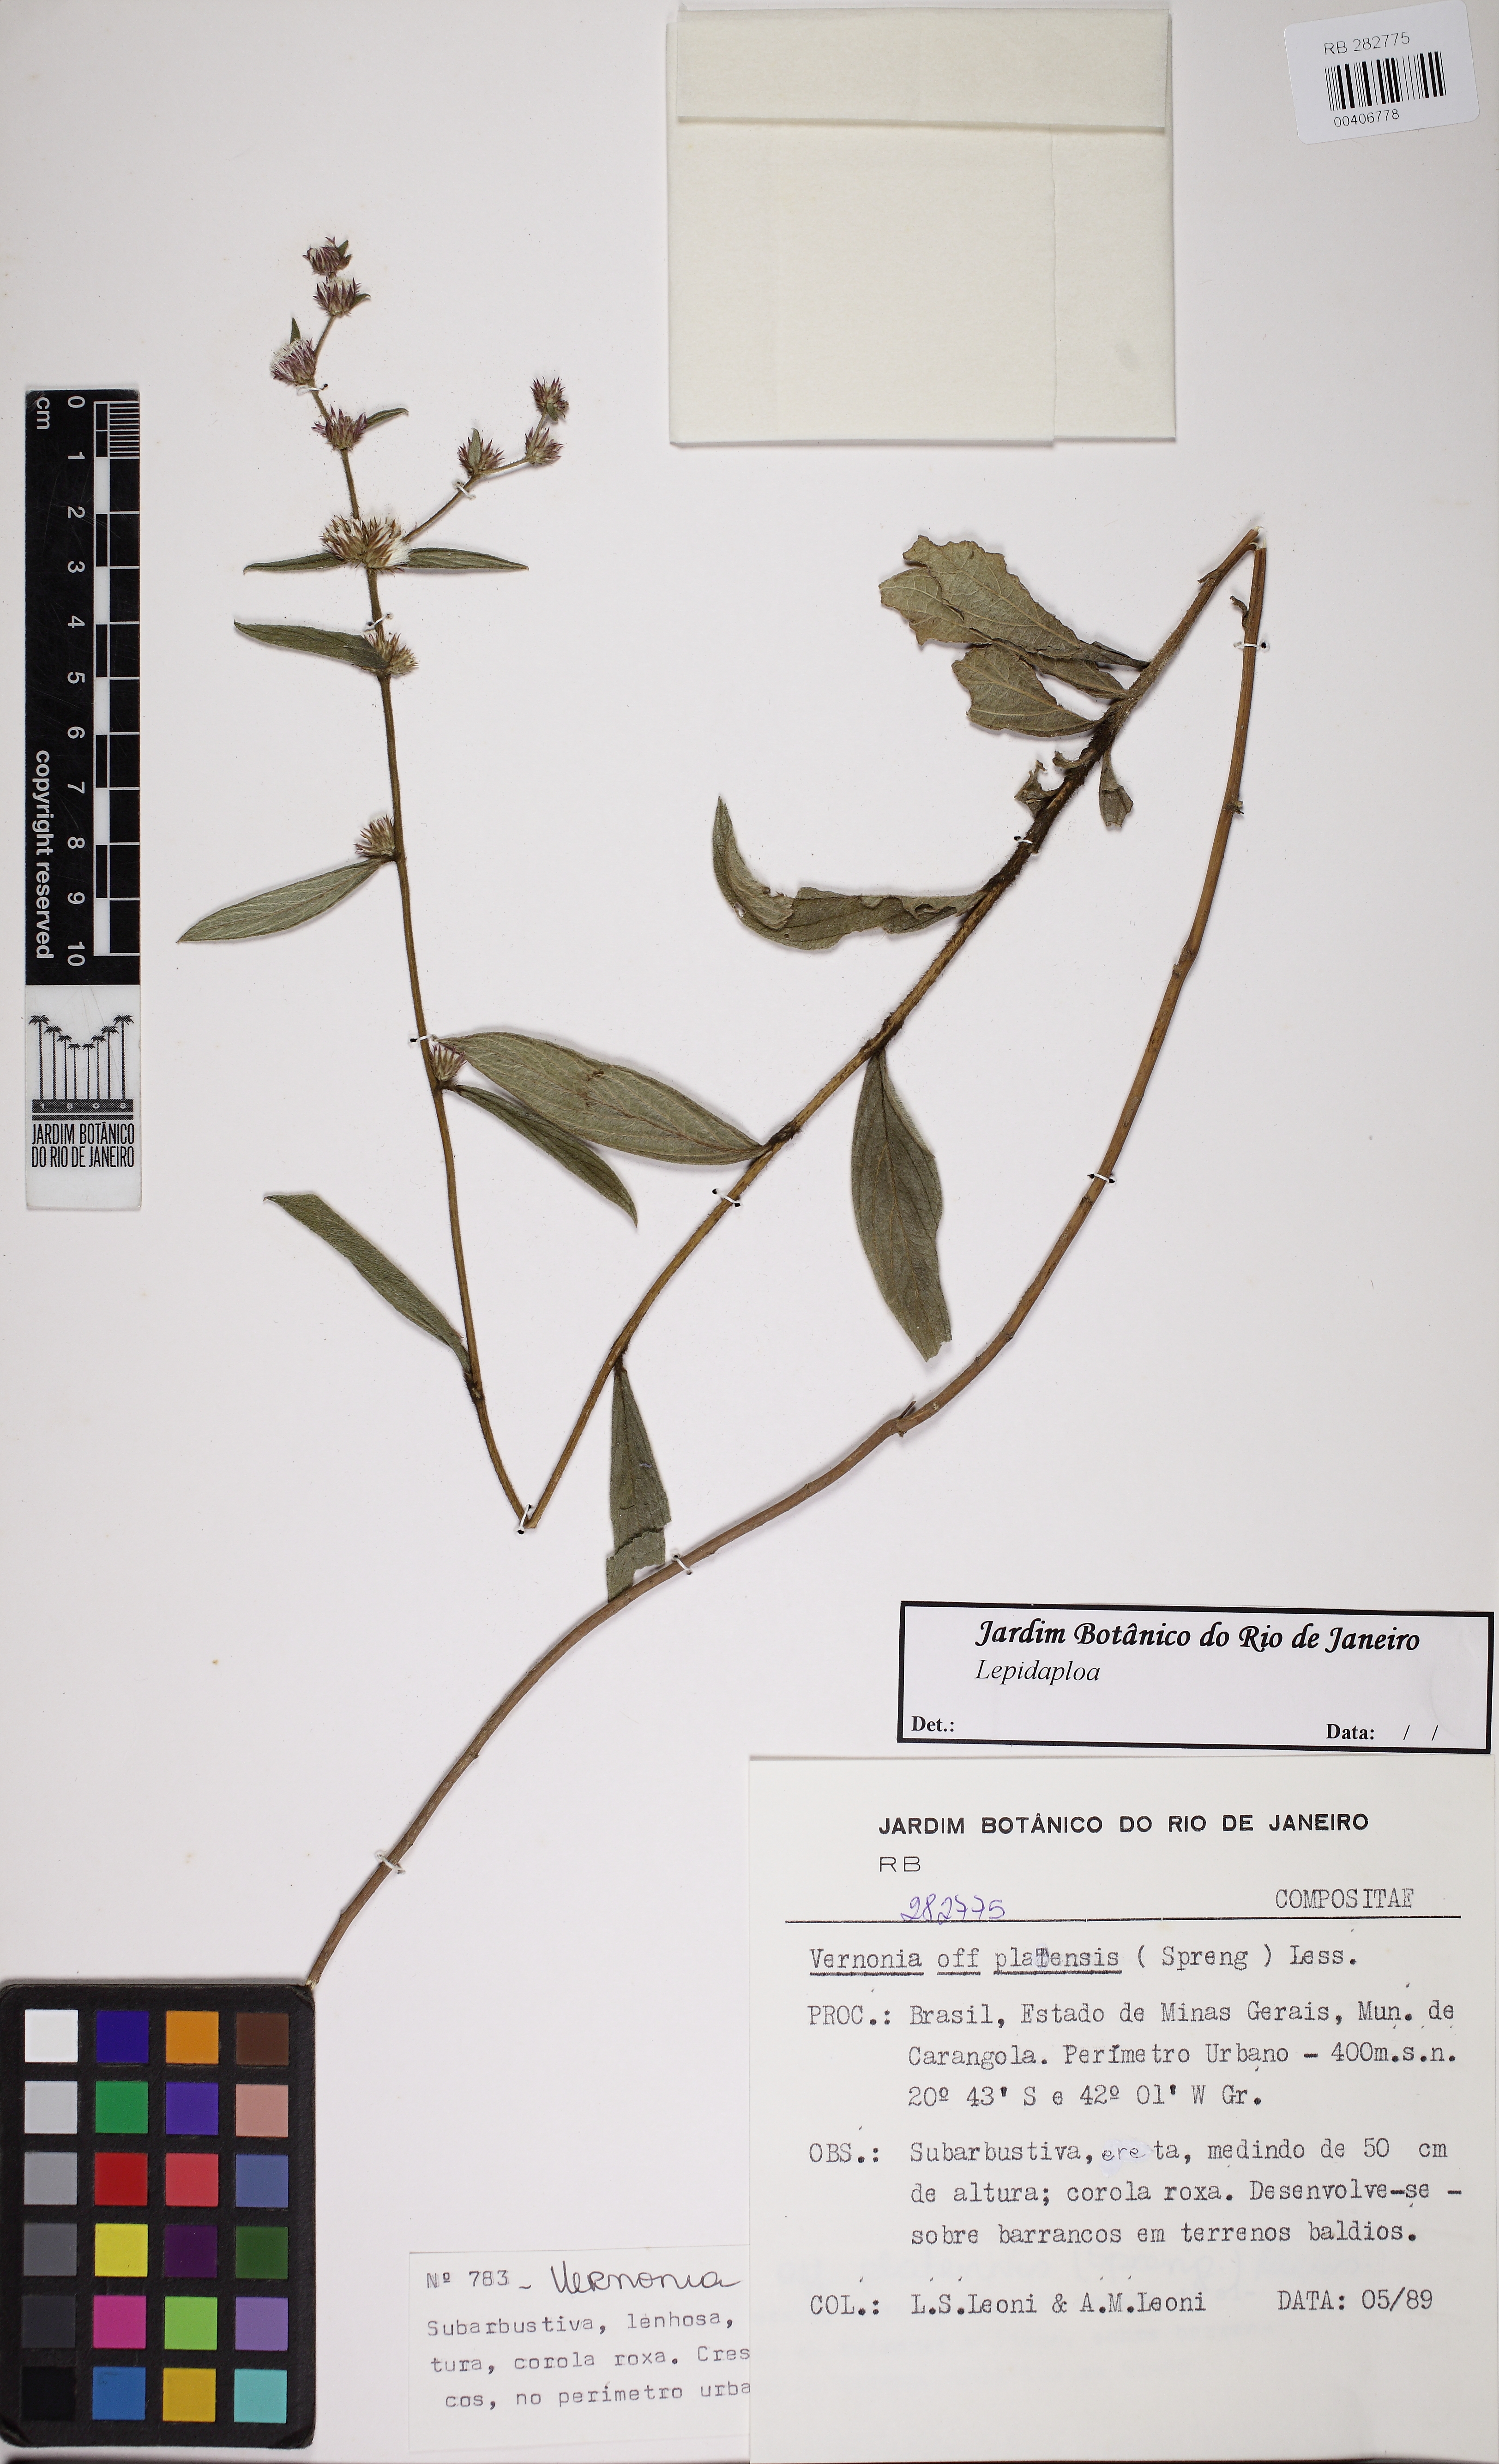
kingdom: Plantae
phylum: Tracheophyta
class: Magnoliopsida
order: Asterales
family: Asteraceae
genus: Lepidaploa
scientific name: Lepidaploa
